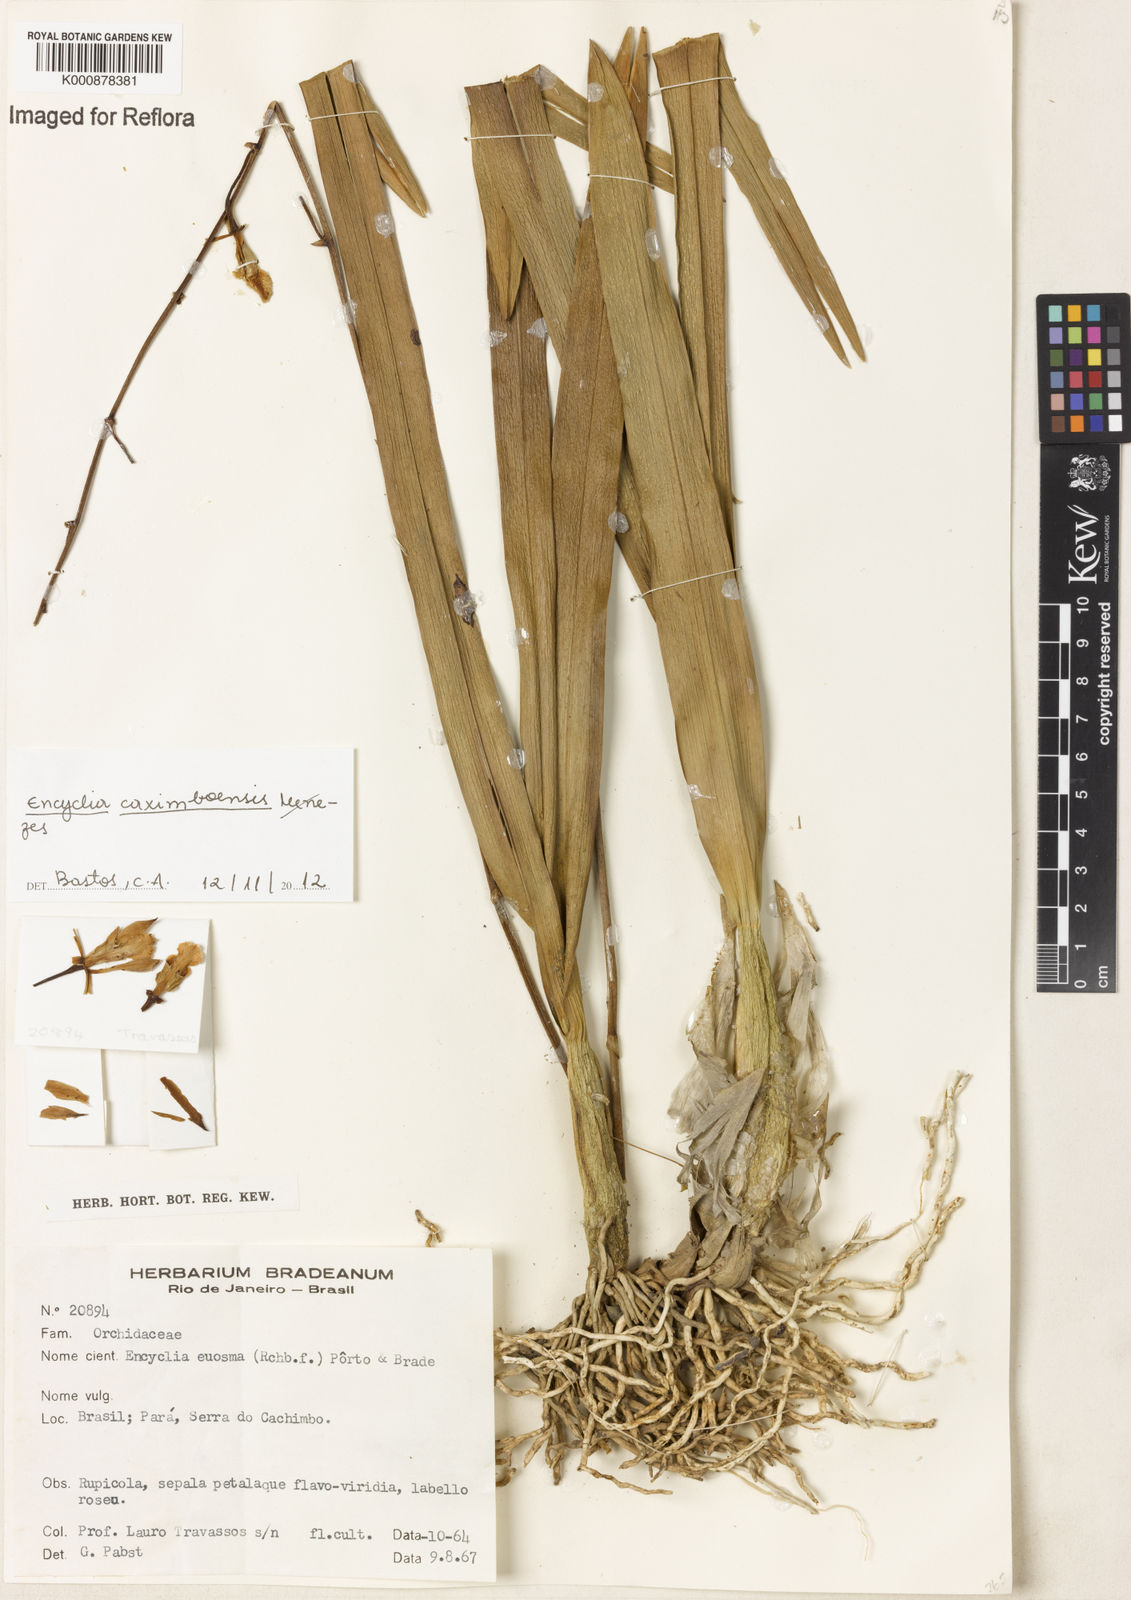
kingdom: Plantae
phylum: Tracheophyta
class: Liliopsida
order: Asparagales
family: Orchidaceae
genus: Encyclia
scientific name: Encyclia xerophytica
